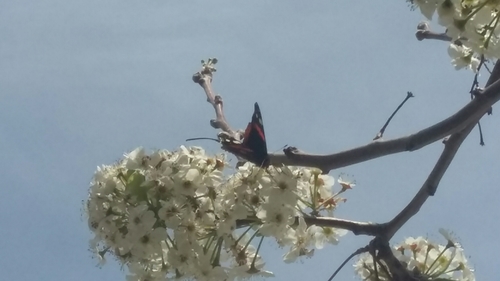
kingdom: Animalia
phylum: Arthropoda
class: Insecta
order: Lepidoptera
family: Nymphalidae
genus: Vanessa
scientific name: Vanessa atalanta
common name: Red admiral
